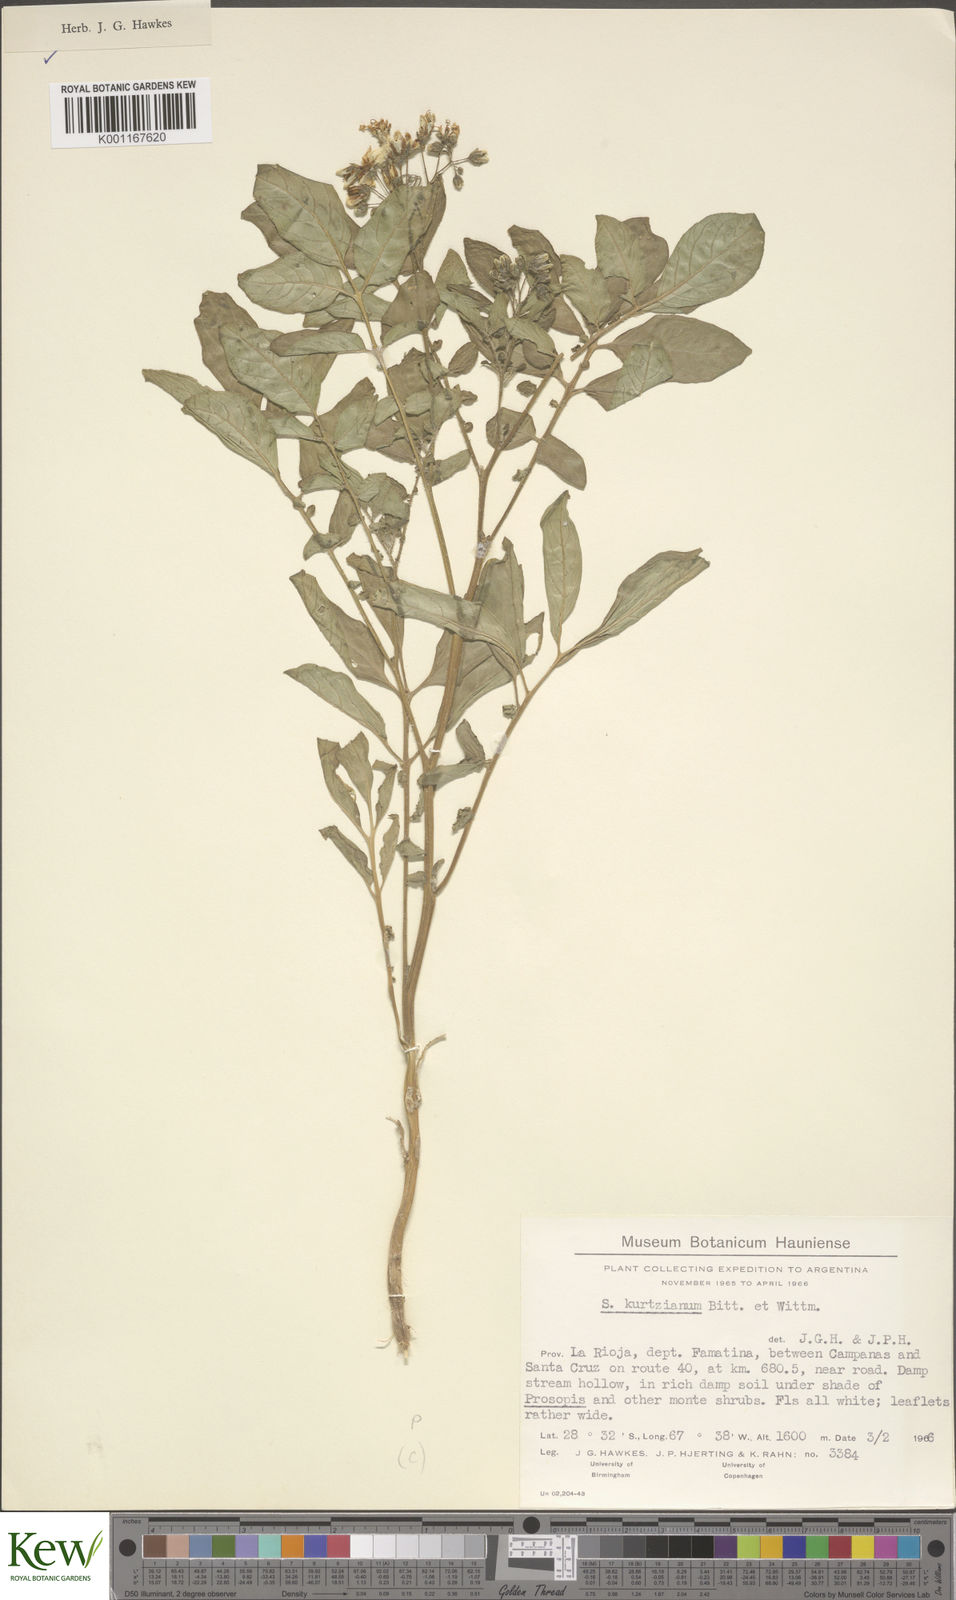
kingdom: Plantae
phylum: Tracheophyta
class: Magnoliopsida
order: Solanales
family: Solanaceae
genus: Solanum
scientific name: Solanum kurtzianum
